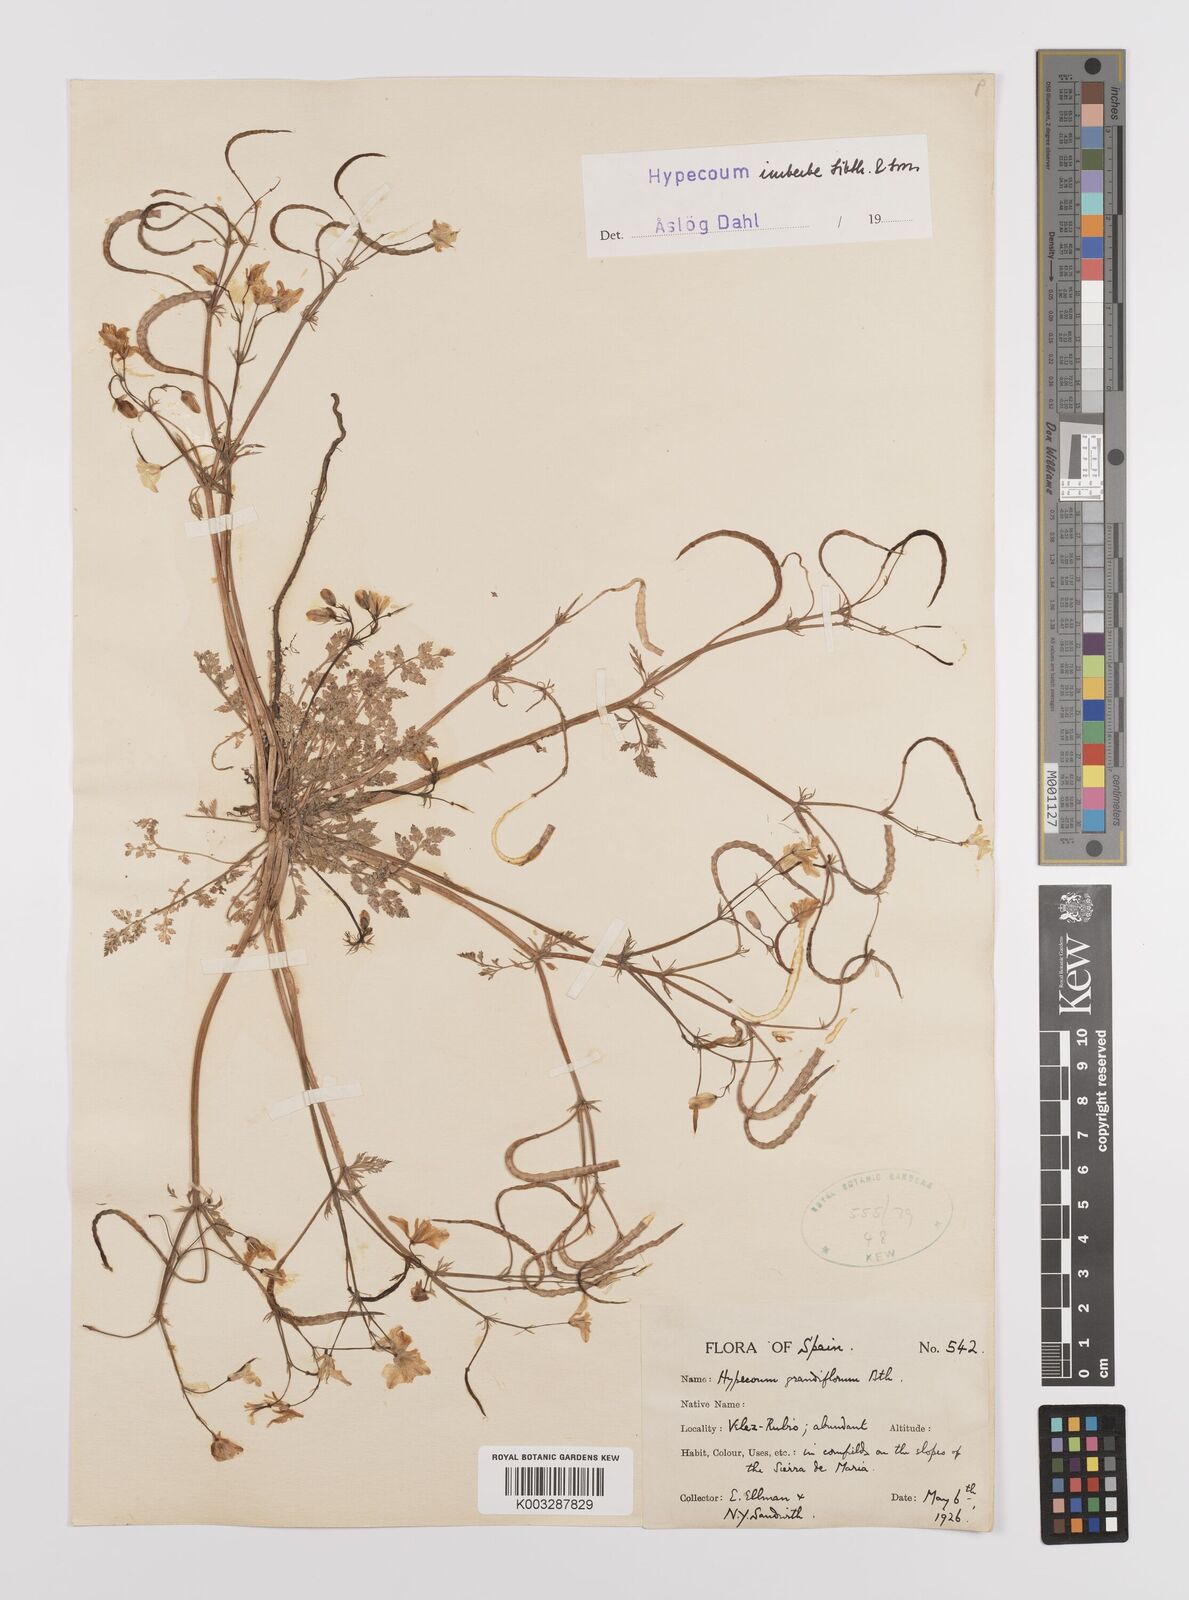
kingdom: Plantae
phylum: Tracheophyta
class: Magnoliopsida
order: Ranunculales
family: Papaveraceae
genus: Hypecoum
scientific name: Hypecoum imberbe
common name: Sicklefruit hypecoum
